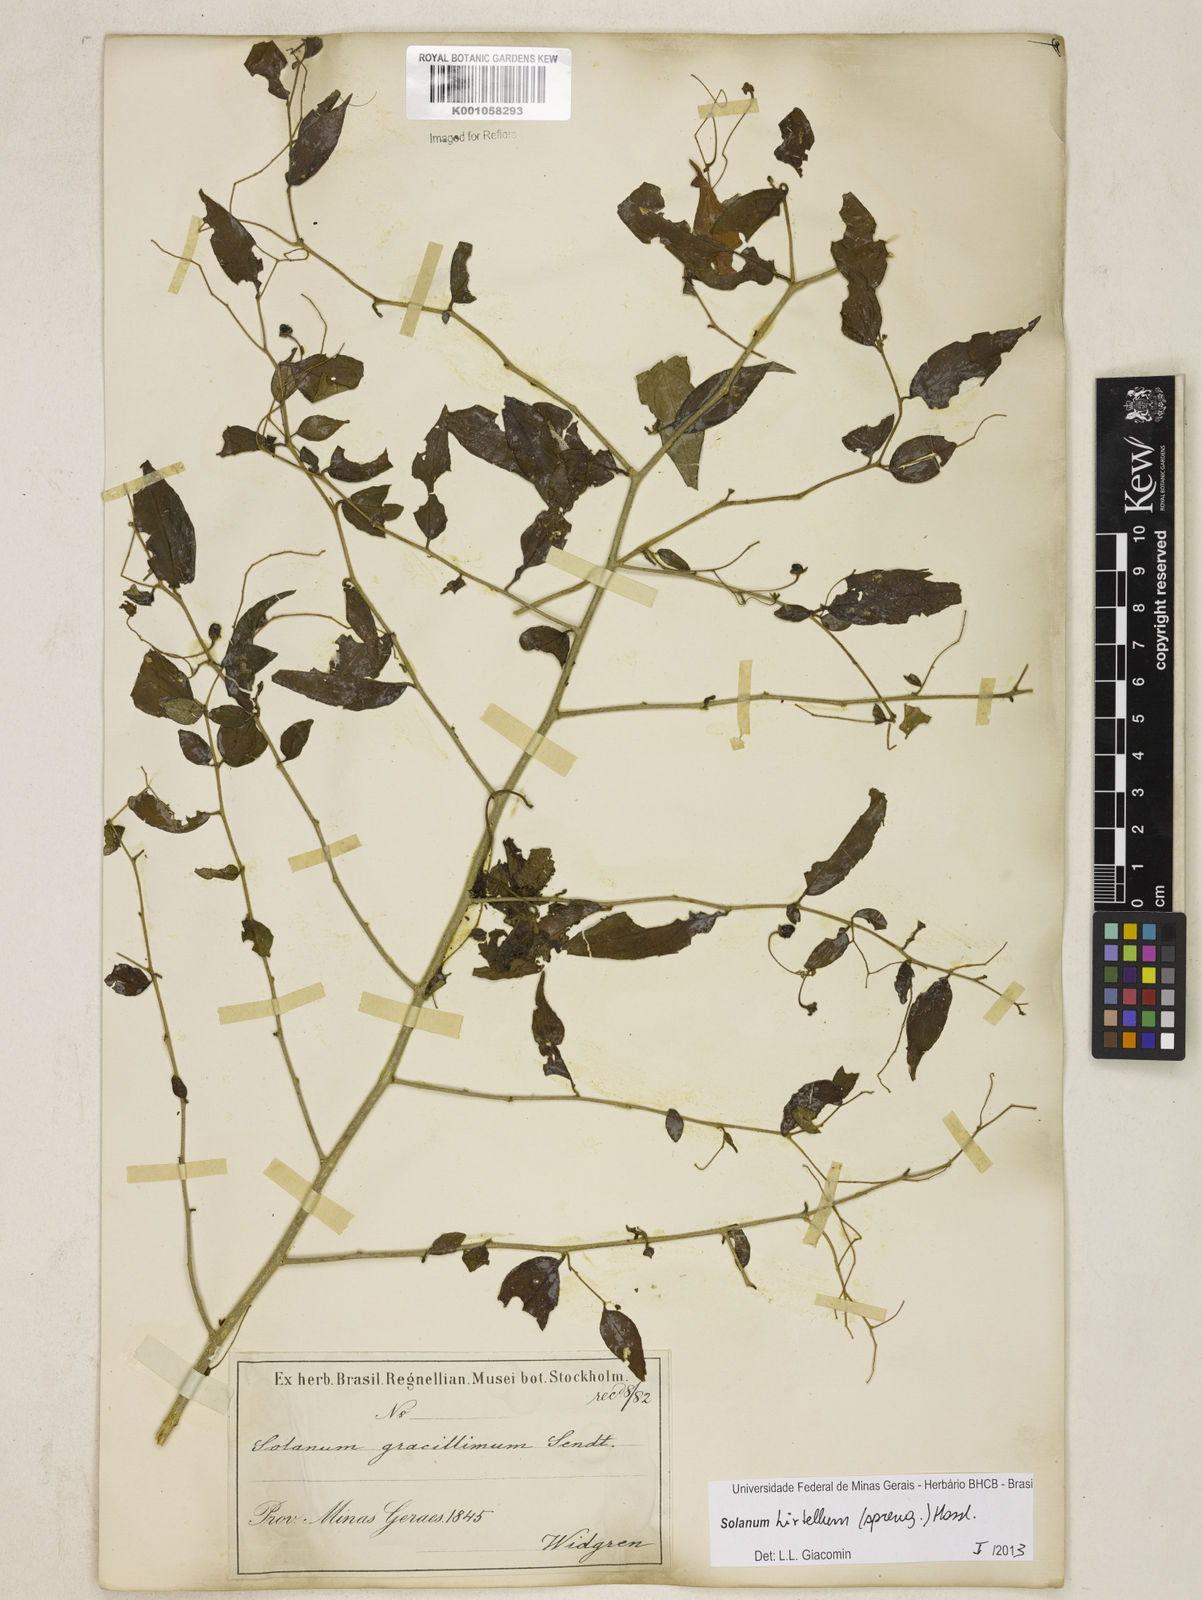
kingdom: Plantae
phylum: Tracheophyta
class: Magnoliopsida
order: Solanales
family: Solanaceae
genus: Solanum
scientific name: Solanum hirtellum
